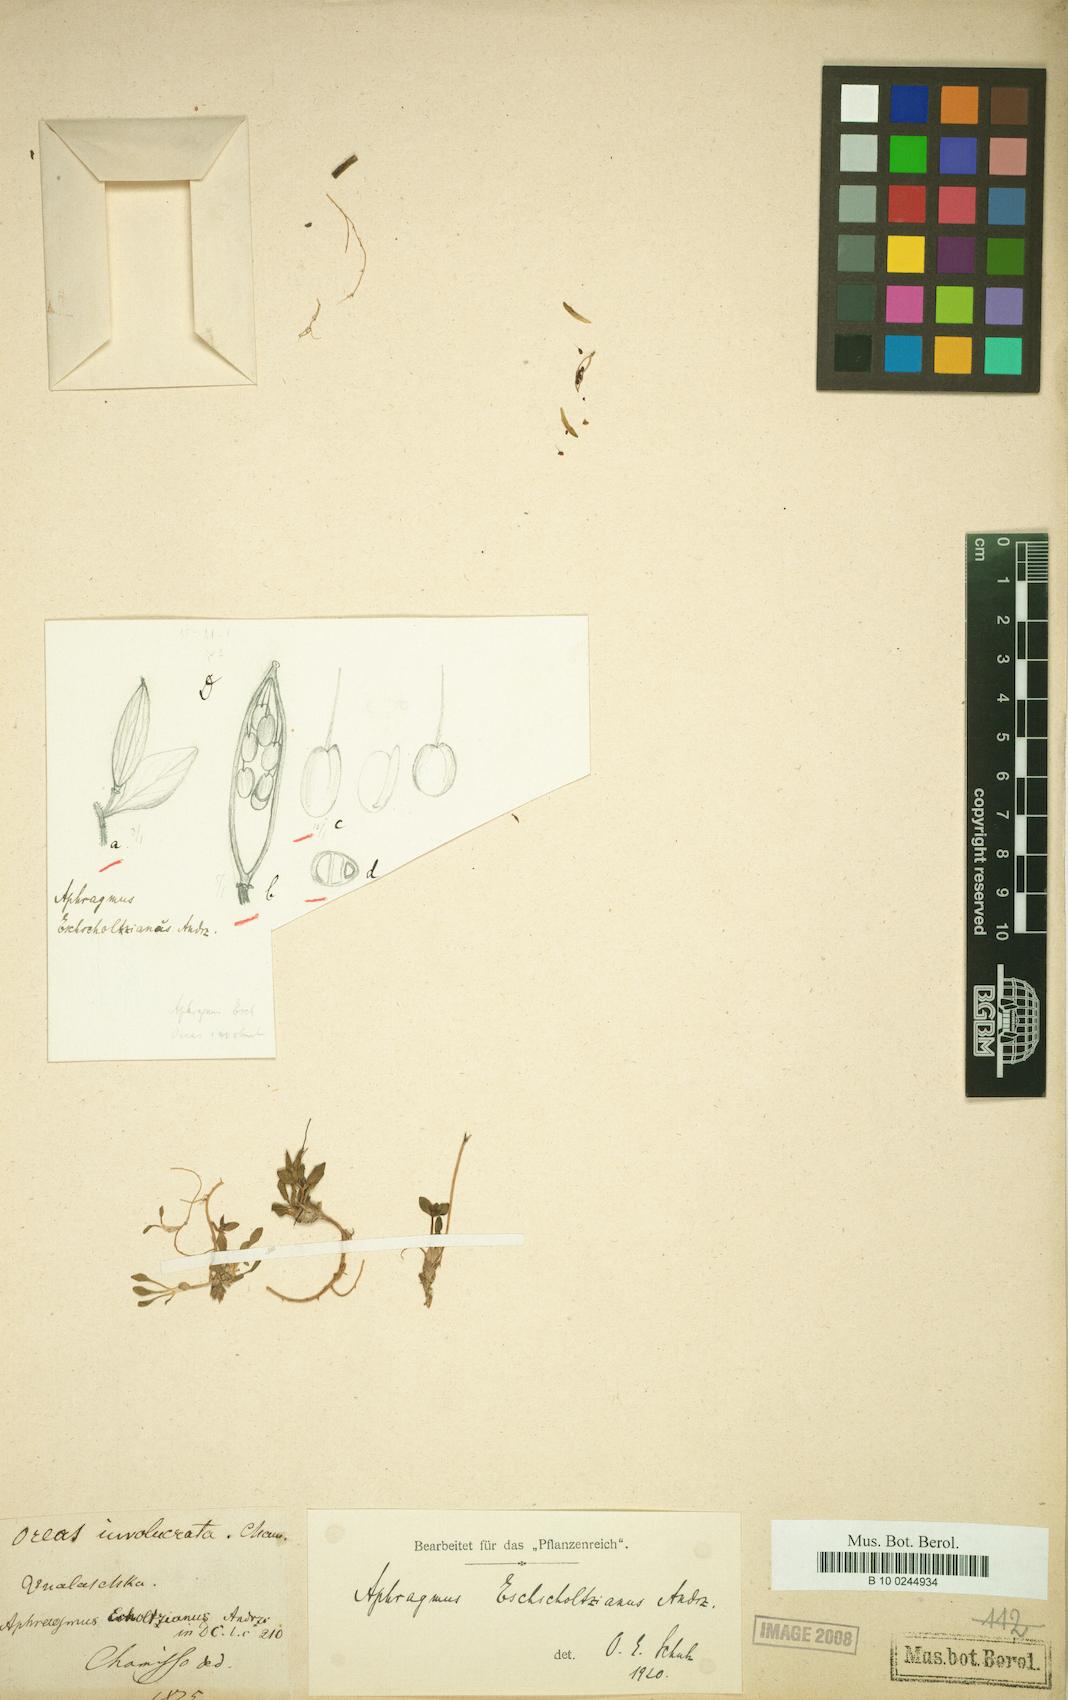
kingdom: Plantae
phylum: Tracheophyta
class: Magnoliopsida
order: Brassicales
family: Brassicaceae
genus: Aphragmus
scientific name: Aphragmus eschscholtzianus
